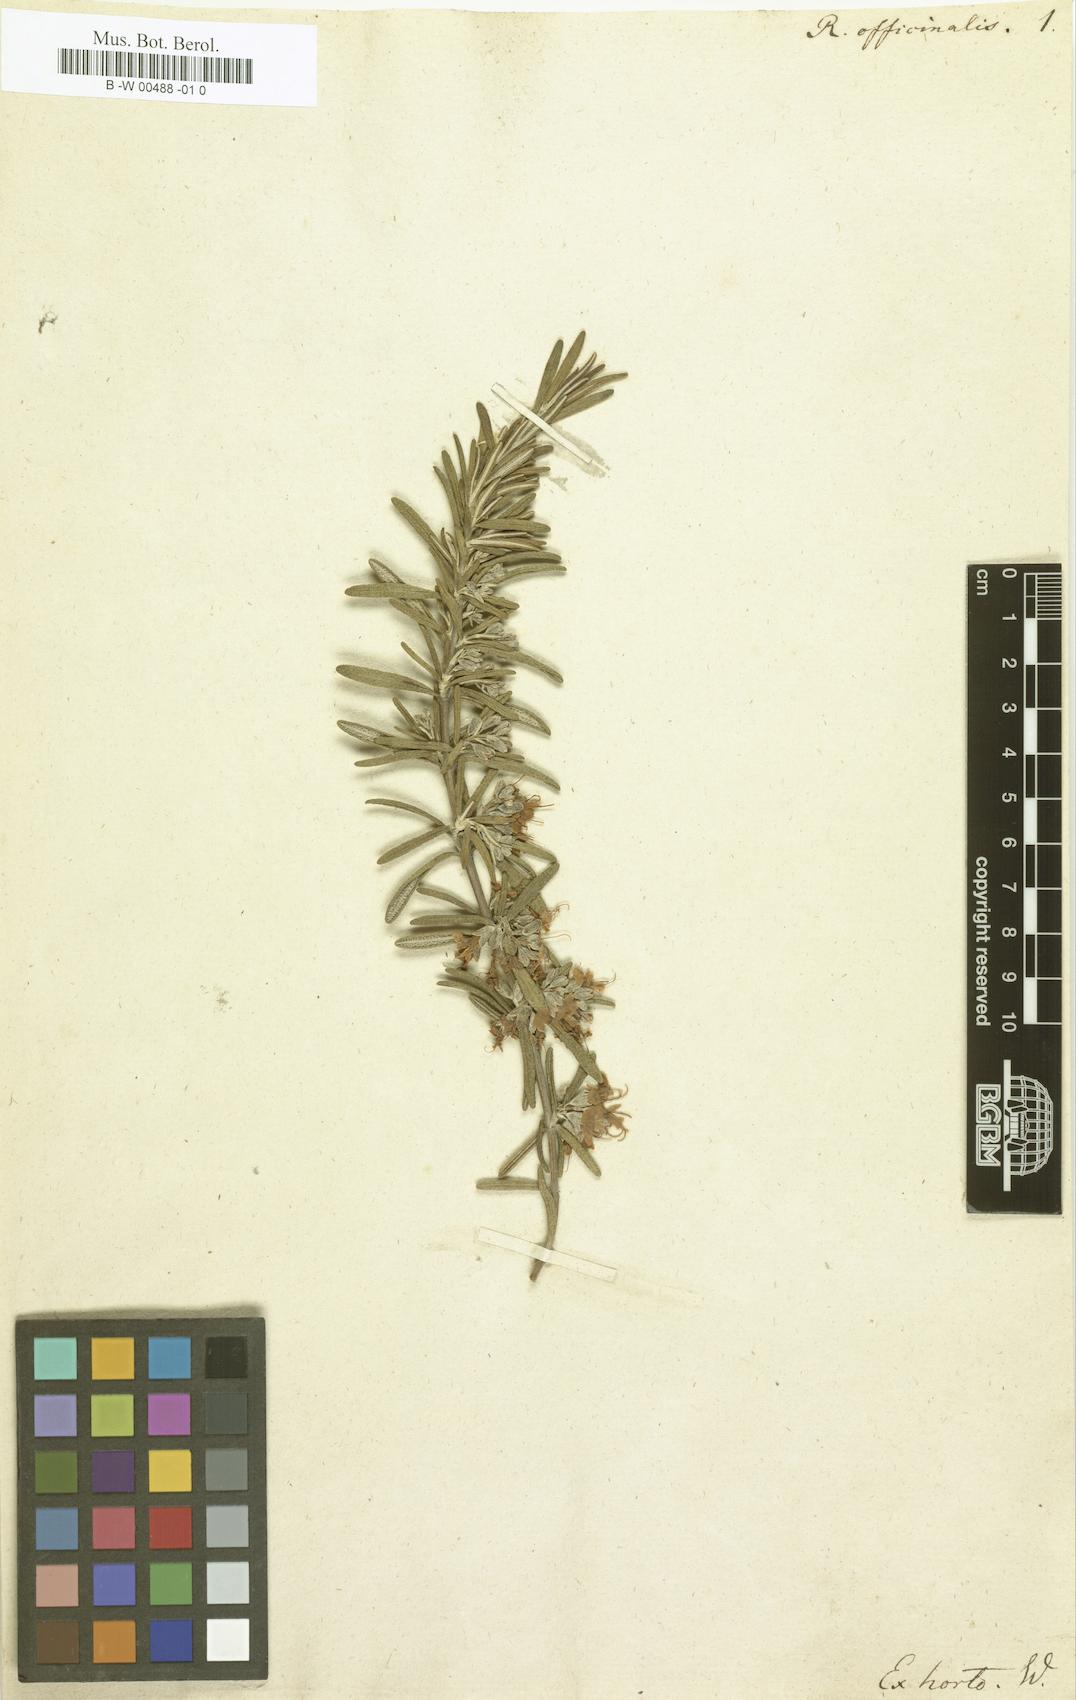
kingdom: Plantae
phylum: Tracheophyta
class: Magnoliopsida
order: Lamiales
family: Lamiaceae
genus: Salvia
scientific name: Salvia rosmarinus
